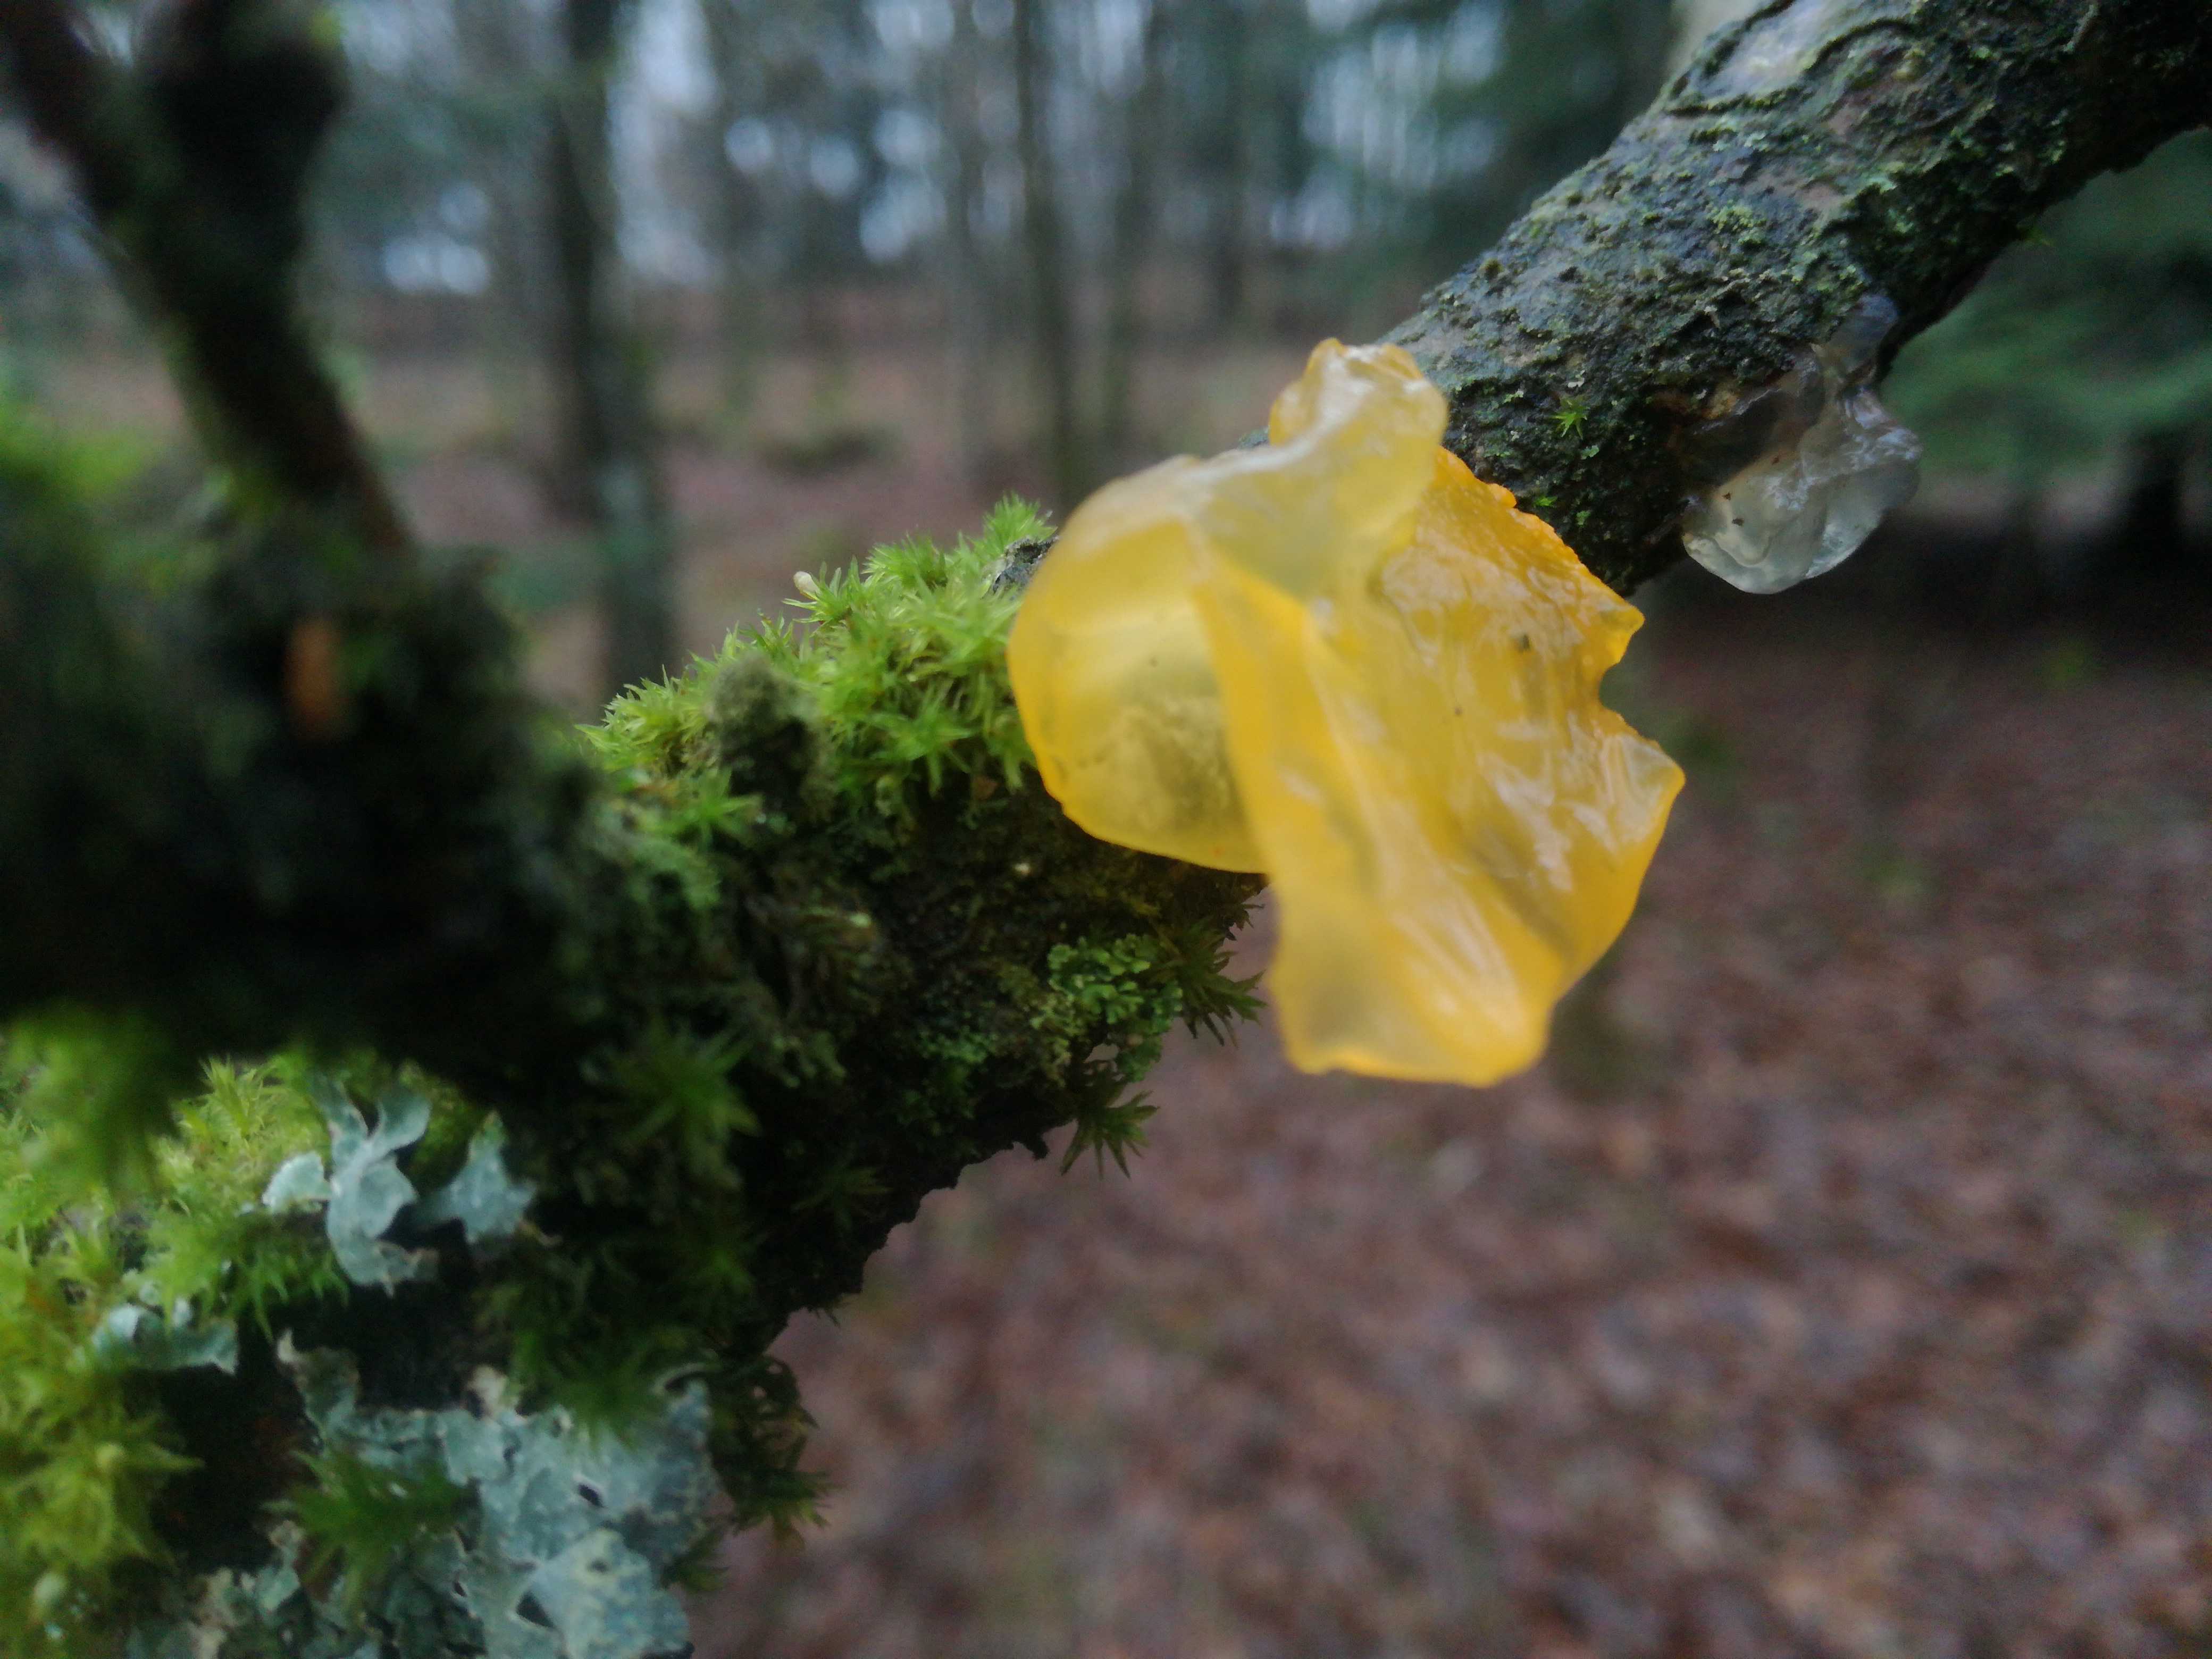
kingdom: Fungi
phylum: Basidiomycota
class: Tremellomycetes
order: Tremellales
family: Tremellaceae
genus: Tremella
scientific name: Tremella mesenterica
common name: gul bævresvamp
